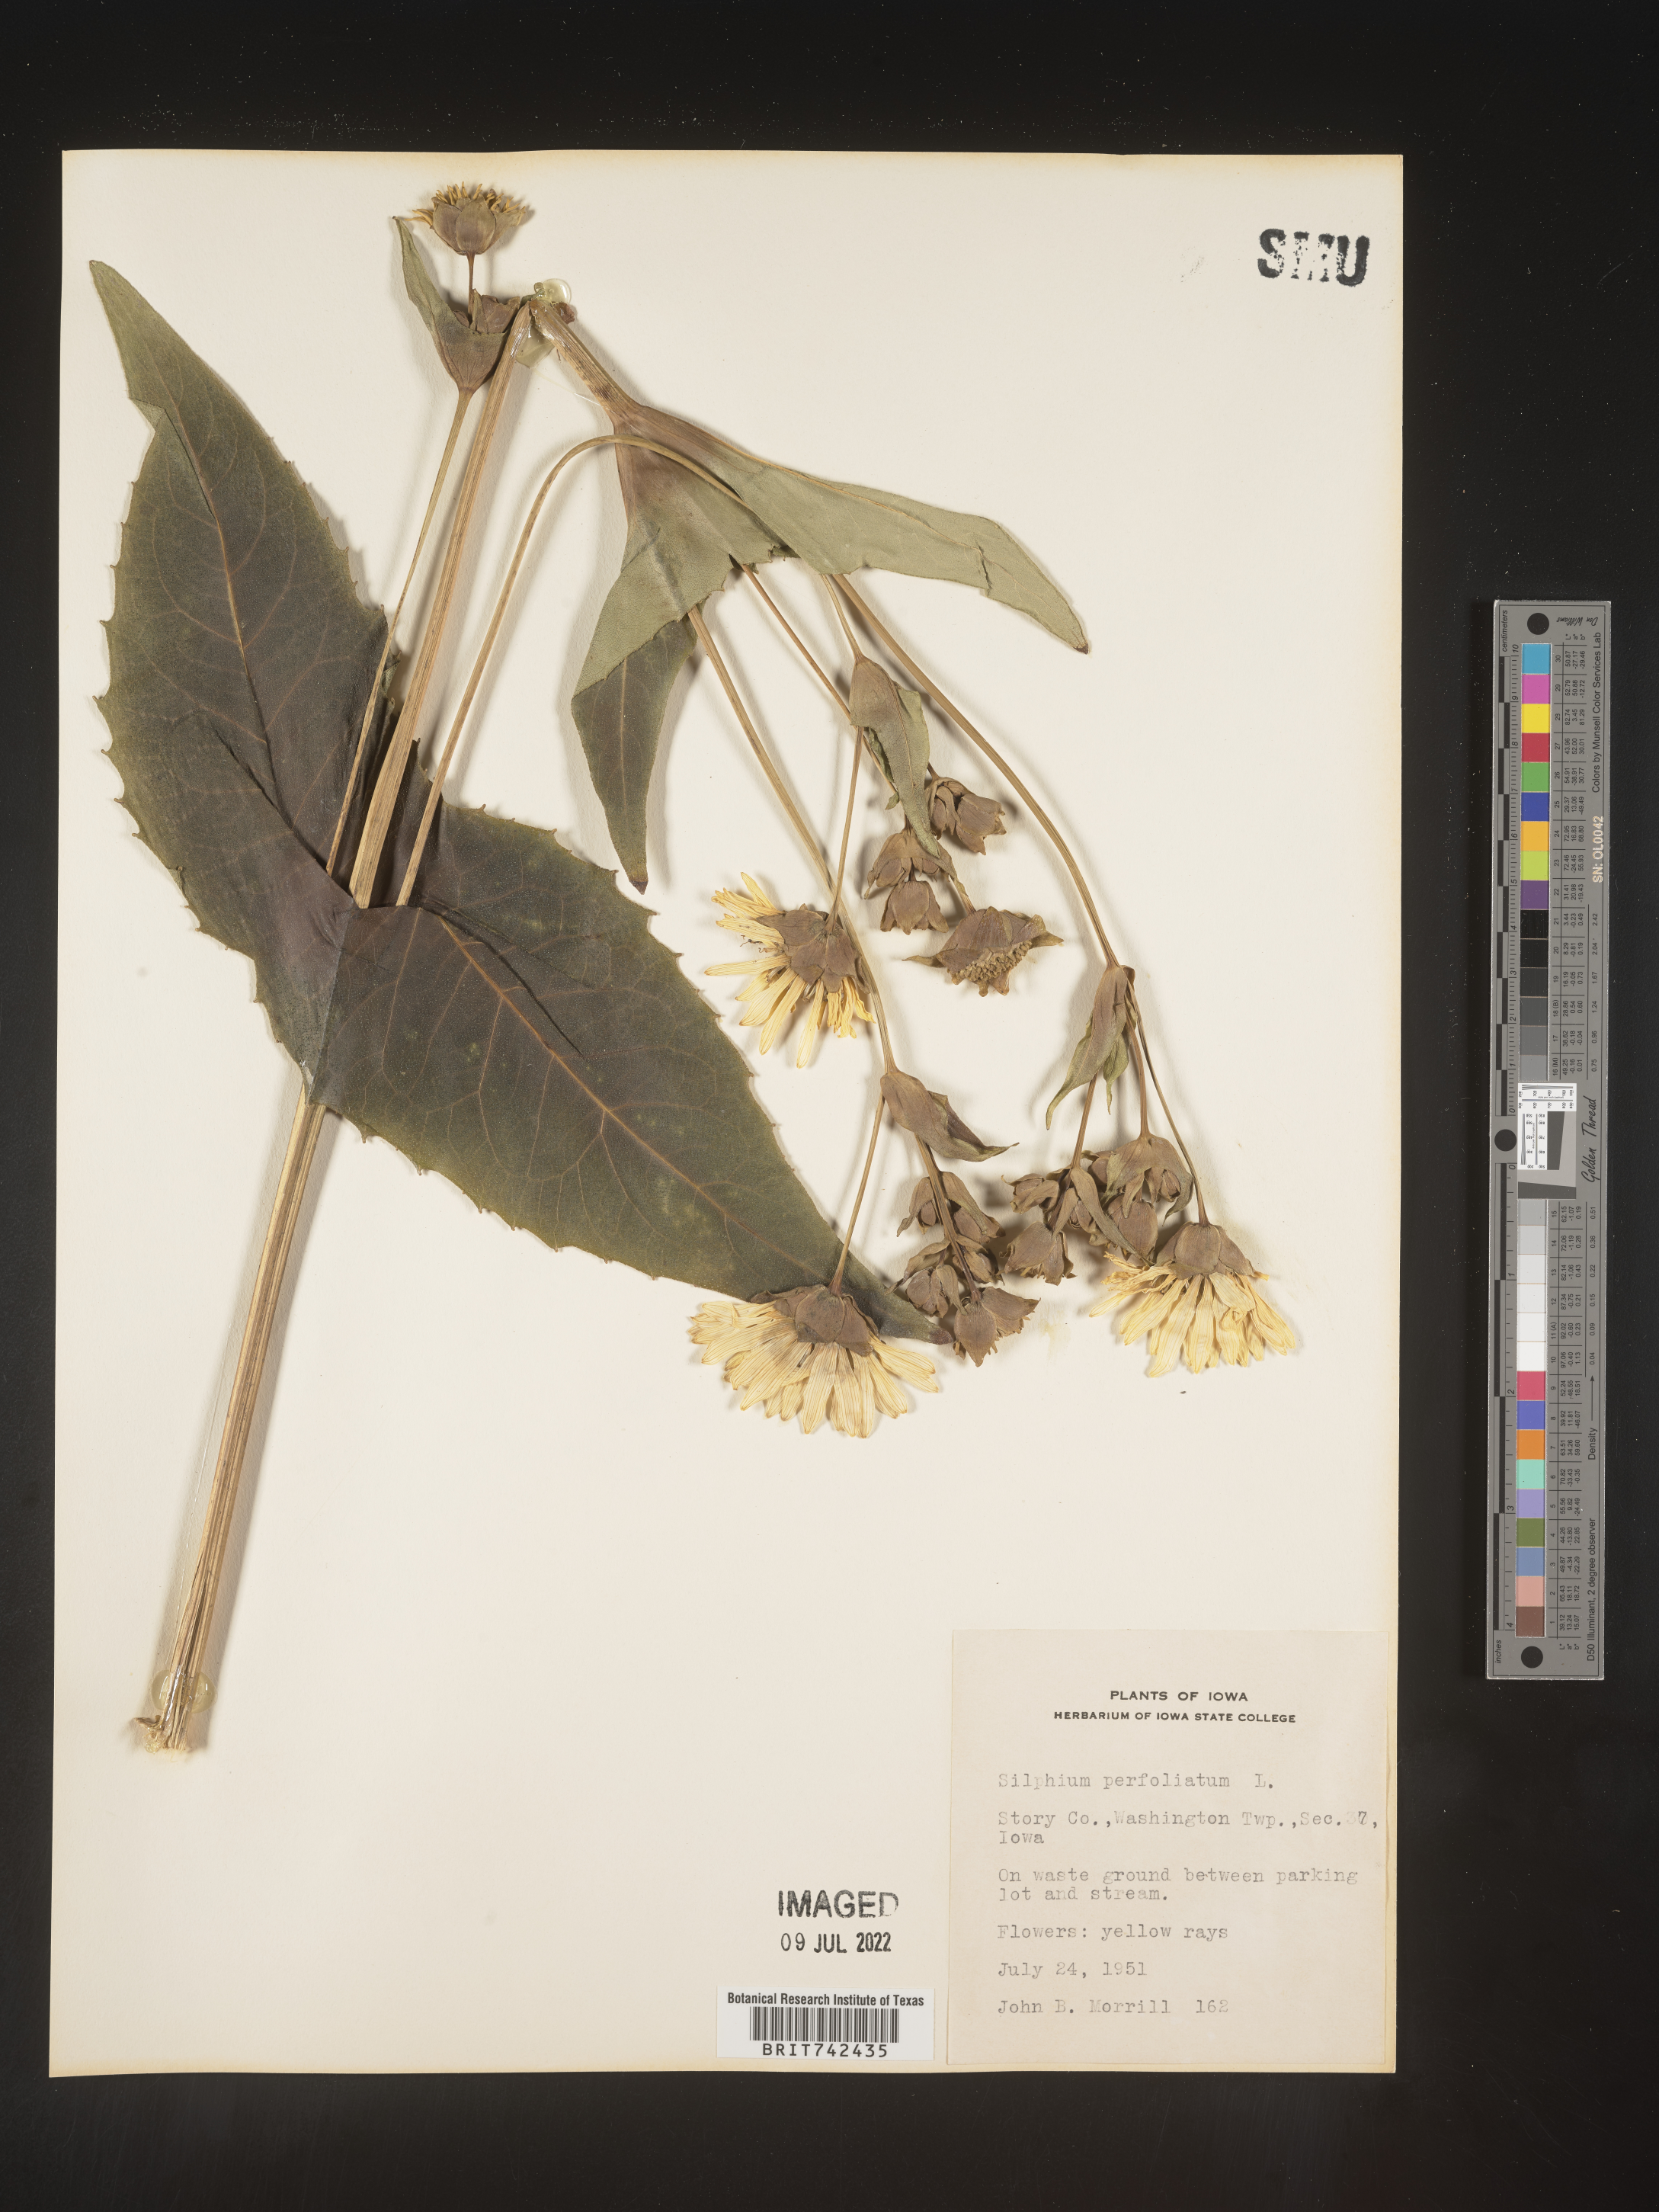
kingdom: Plantae
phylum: Tracheophyta
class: Magnoliopsida
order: Asterales
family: Asteraceae
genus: Silphium
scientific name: Silphium perfoliatum
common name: Cup-plant
